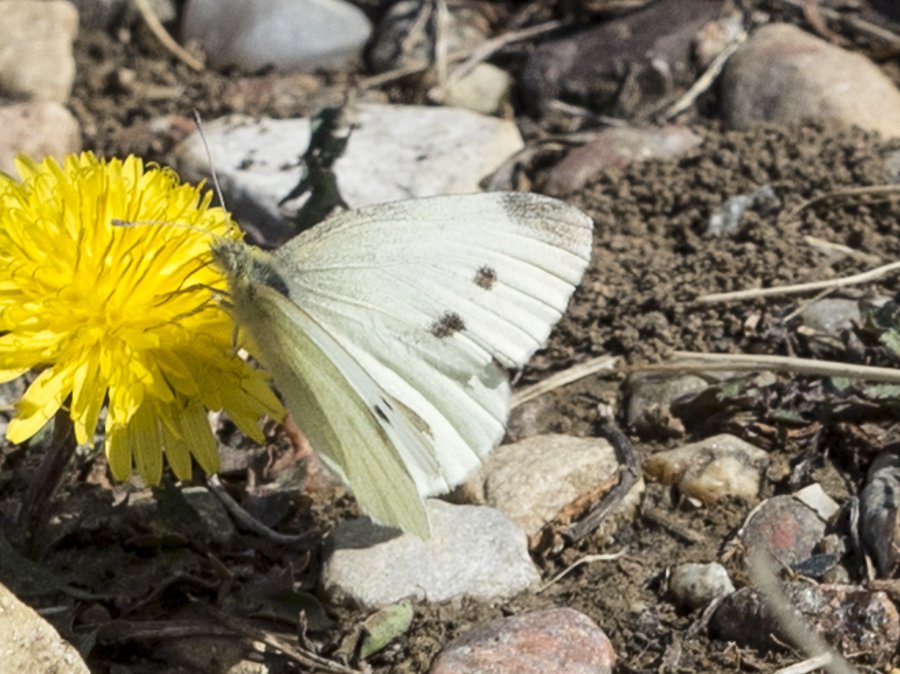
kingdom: Animalia
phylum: Arthropoda
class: Insecta
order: Lepidoptera
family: Pieridae
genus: Pieris
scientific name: Pieris rapae
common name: Cabbage White
